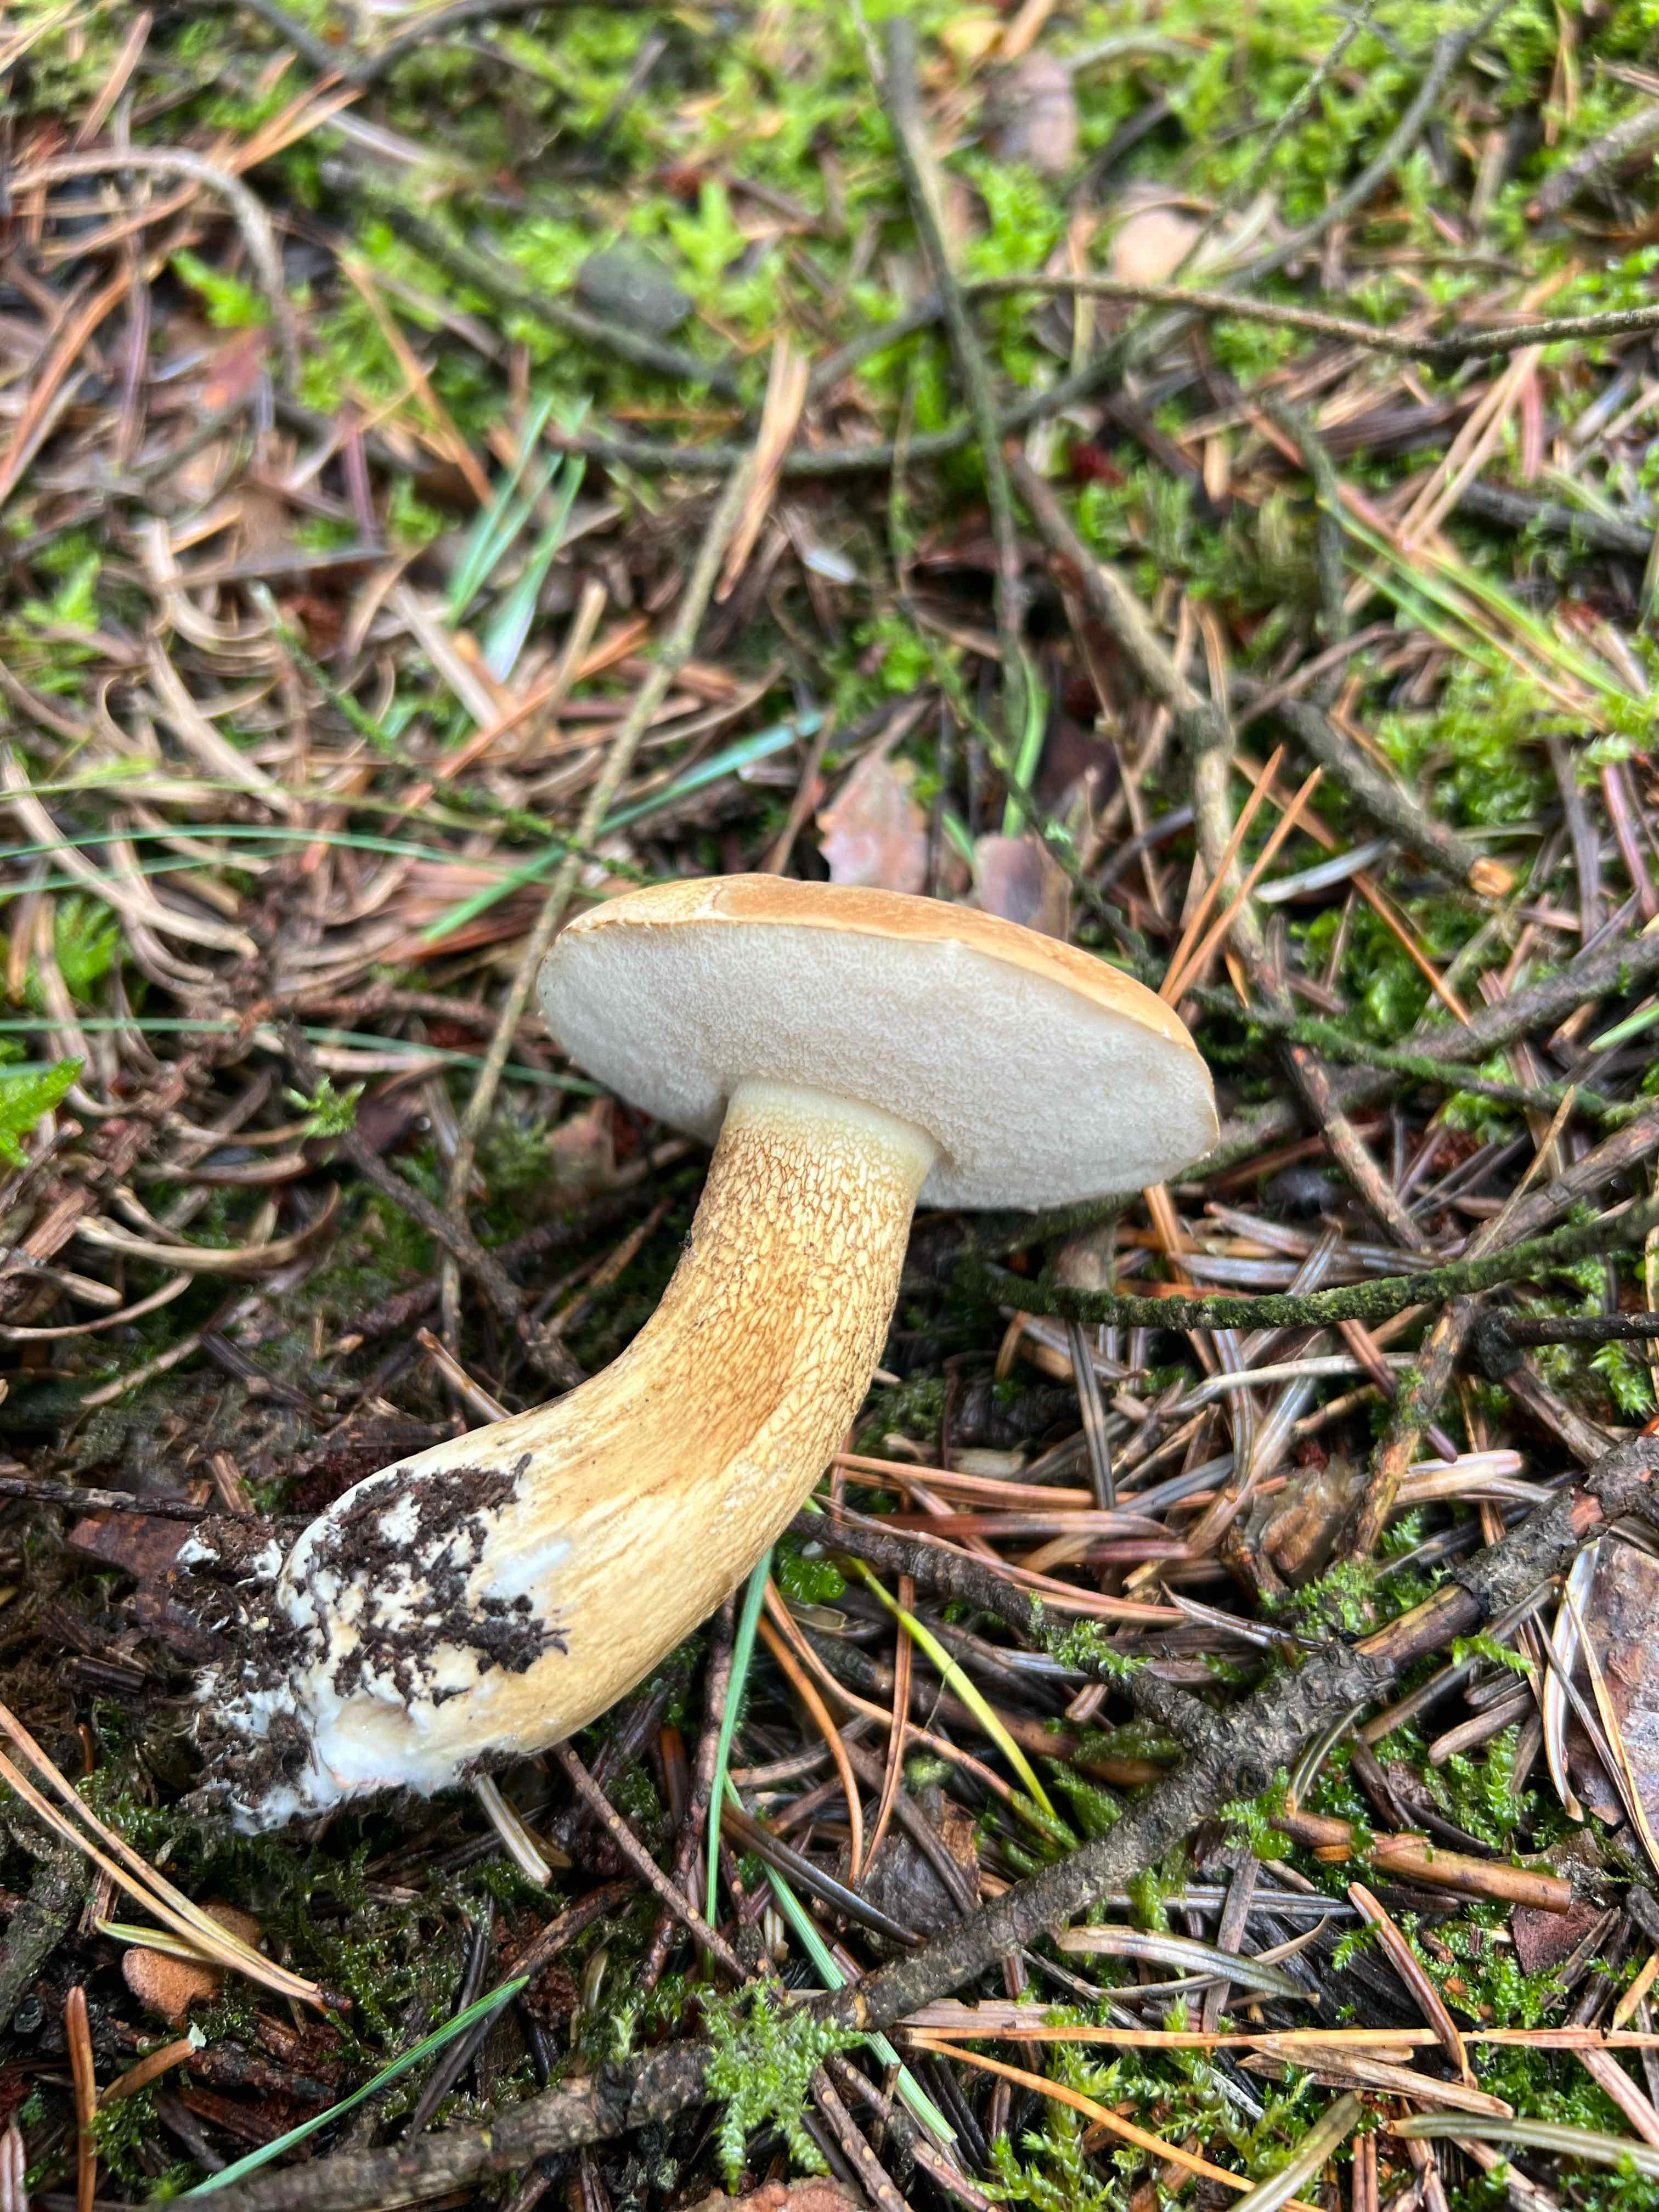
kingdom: Fungi
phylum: Basidiomycota
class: Agaricomycetes
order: Boletales
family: Boletaceae
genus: Tylopilus
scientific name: Tylopilus felleus
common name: galderørhat
